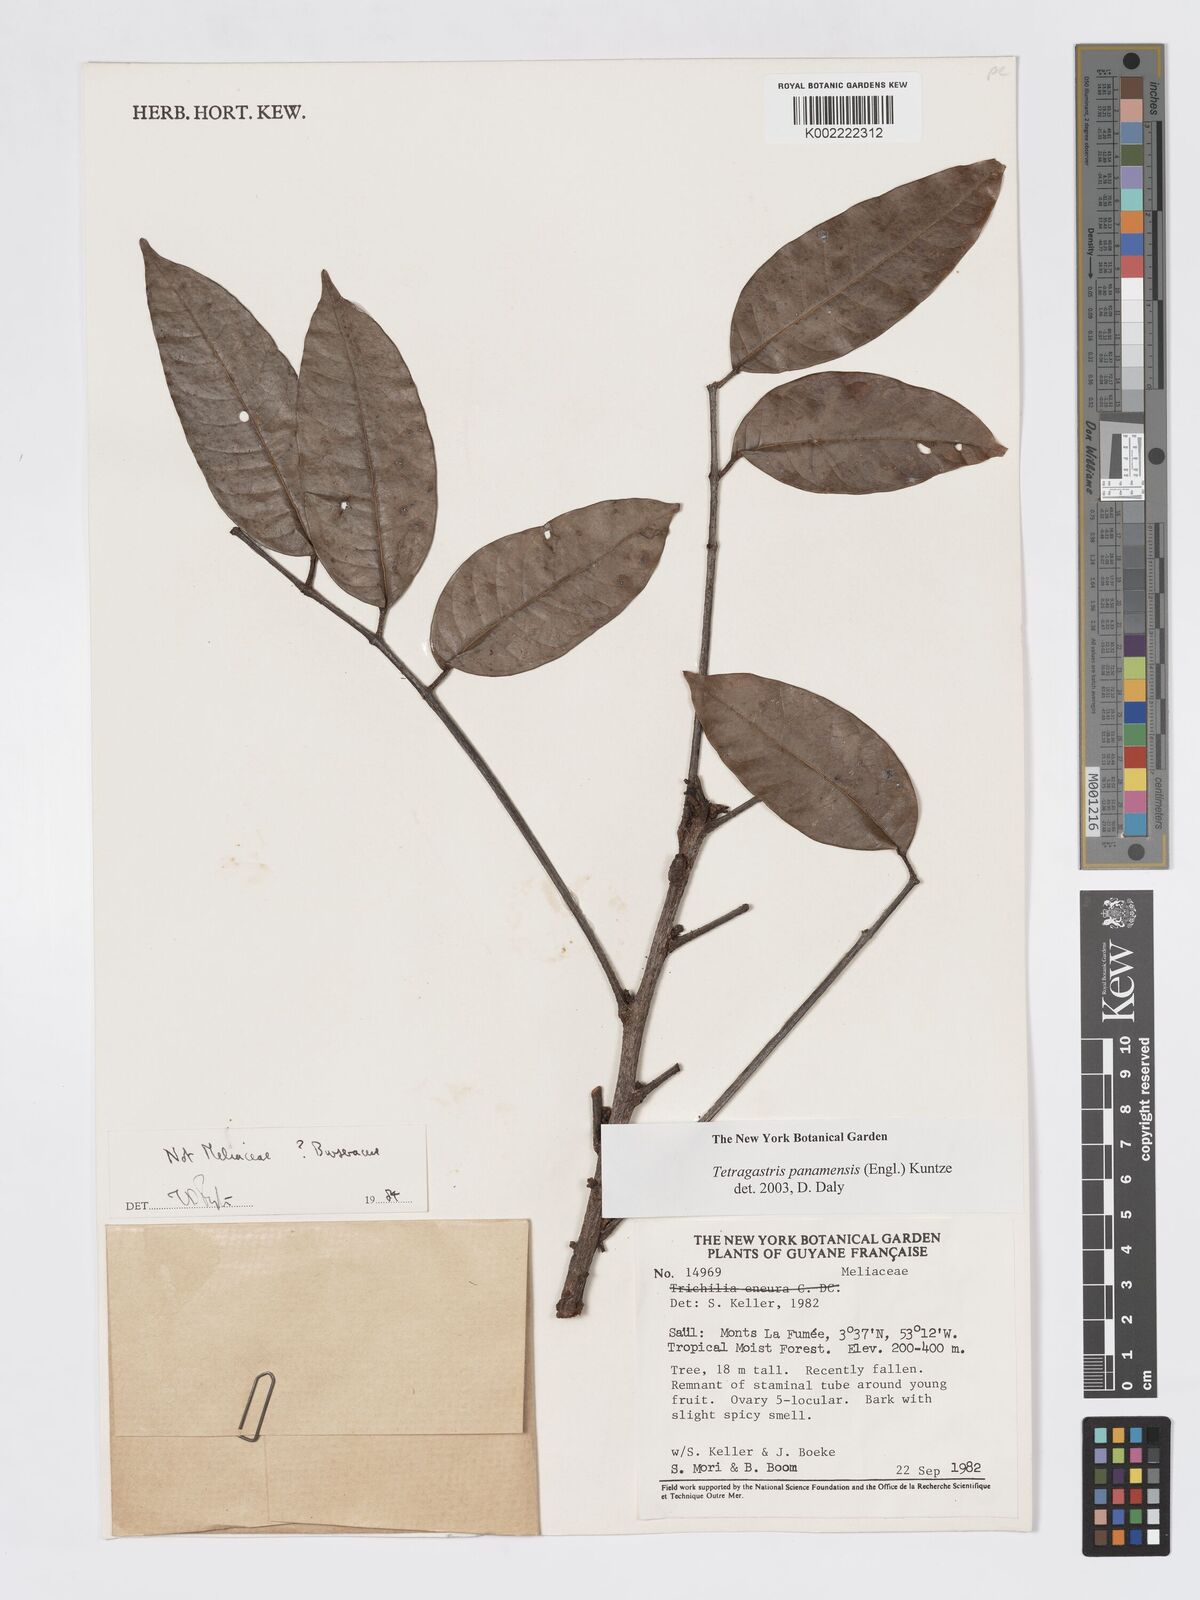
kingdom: Plantae
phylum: Tracheophyta
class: Magnoliopsida
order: Sapindales
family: Burseraceae
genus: Tetragastris
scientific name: Tetragastris panamensis
